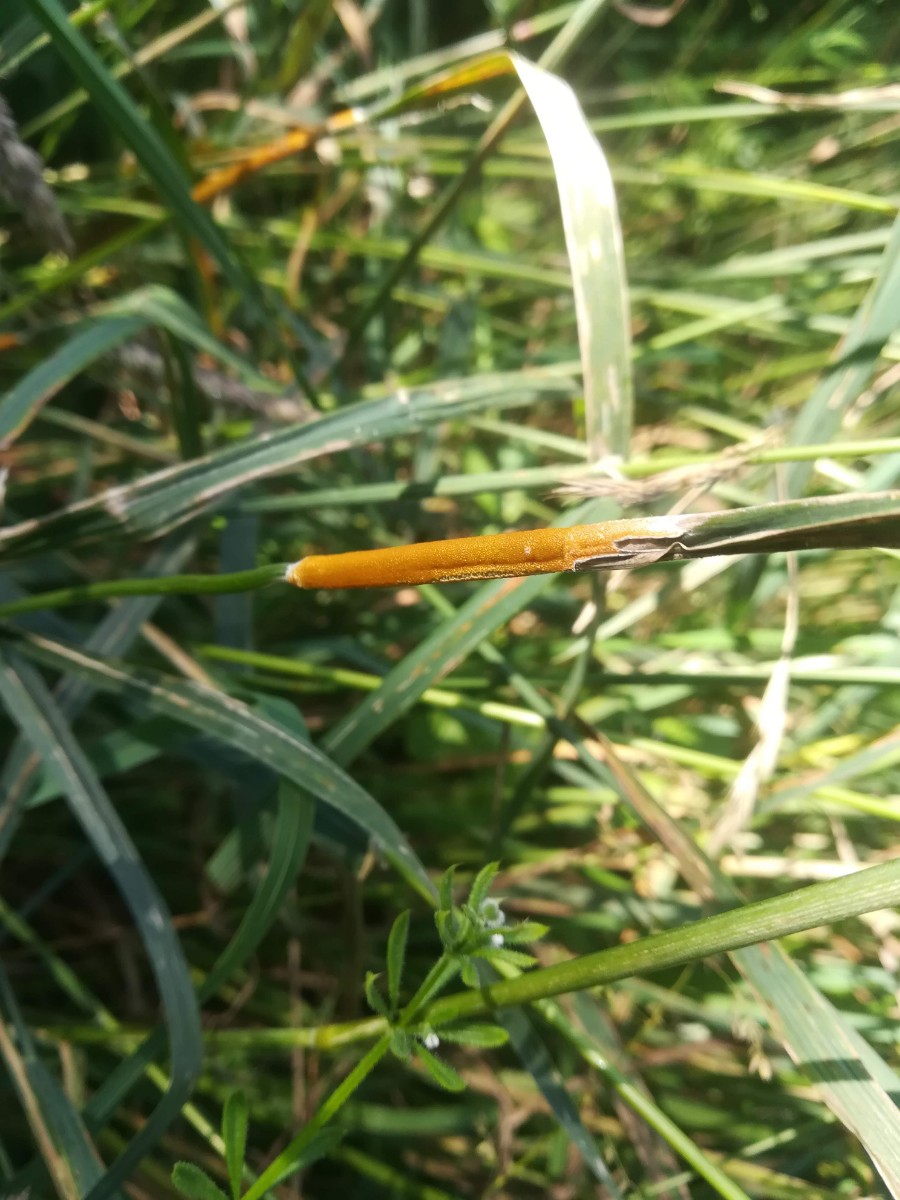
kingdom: Fungi
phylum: Ascomycota
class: Sordariomycetes
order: Hypocreales
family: Clavicipitaceae
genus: Epichloe
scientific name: Epichloe typhina
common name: almindelig kernerør
